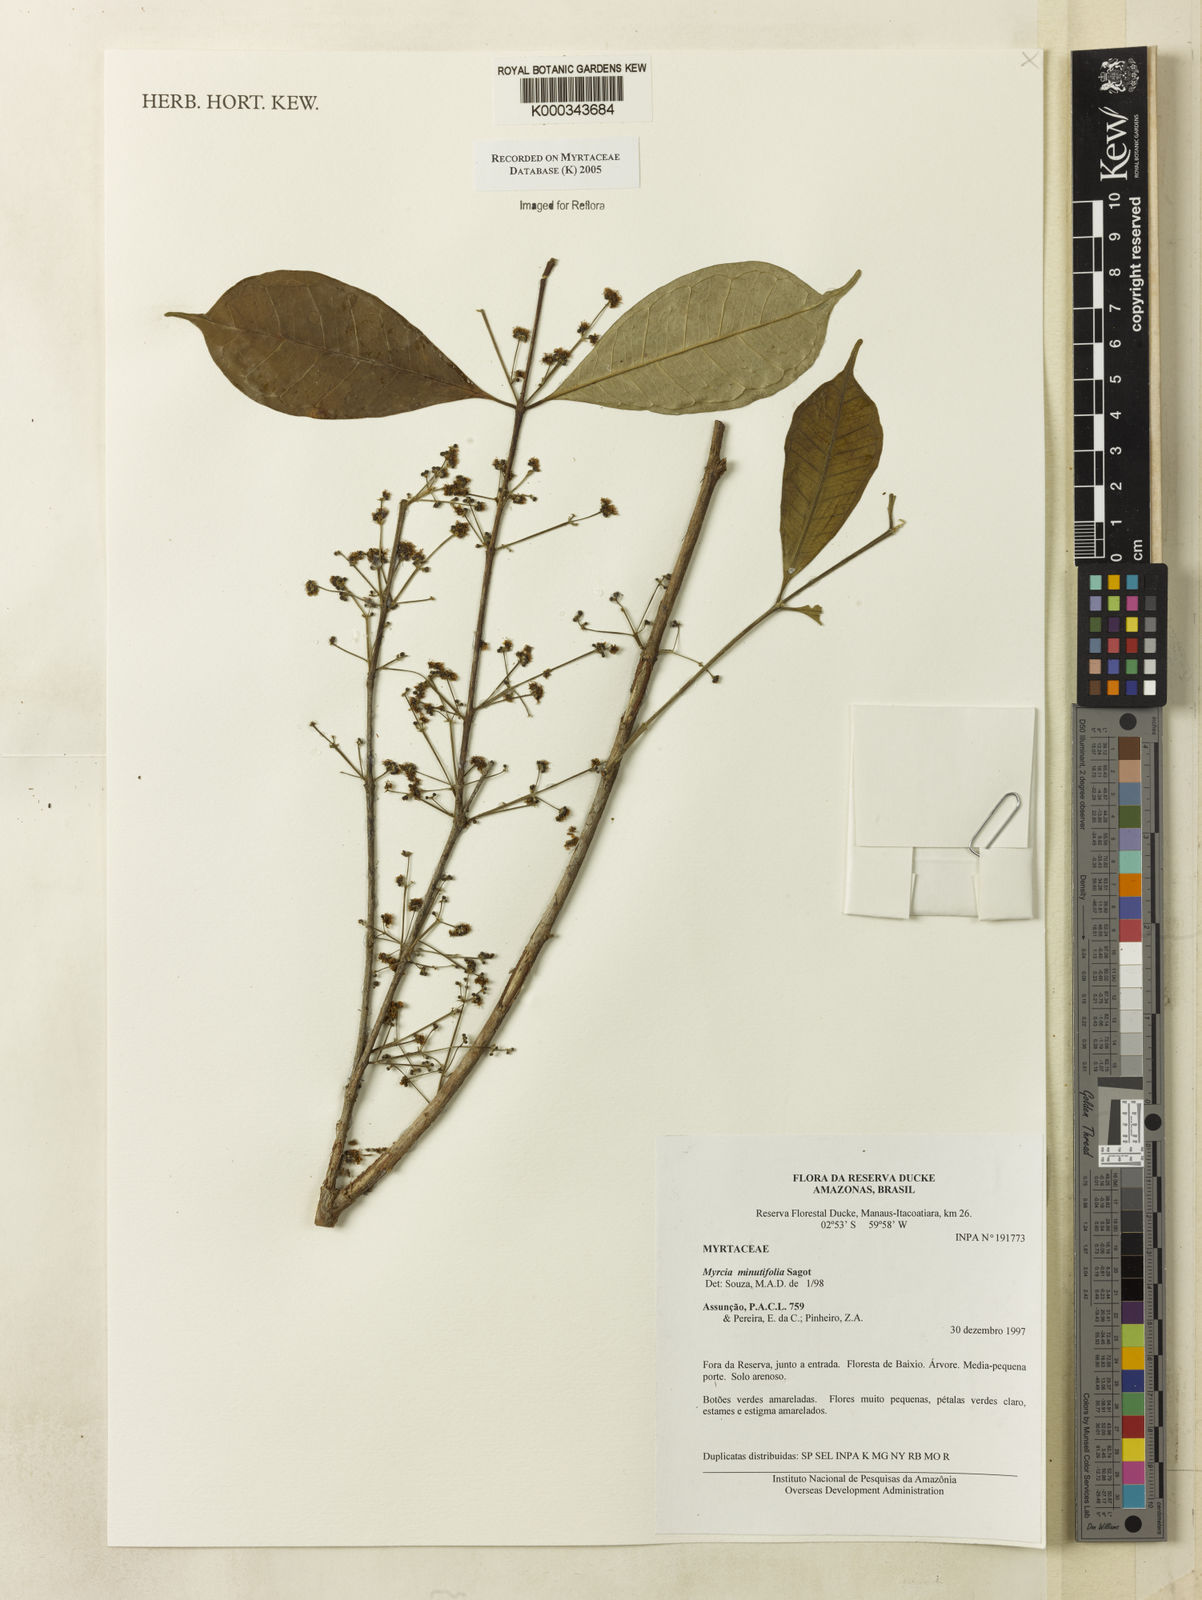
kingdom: Plantae
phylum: Tracheophyta
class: Magnoliopsida
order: Myrtales
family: Myrtaceae
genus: Myrcia
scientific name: Myrcia minutiflora
